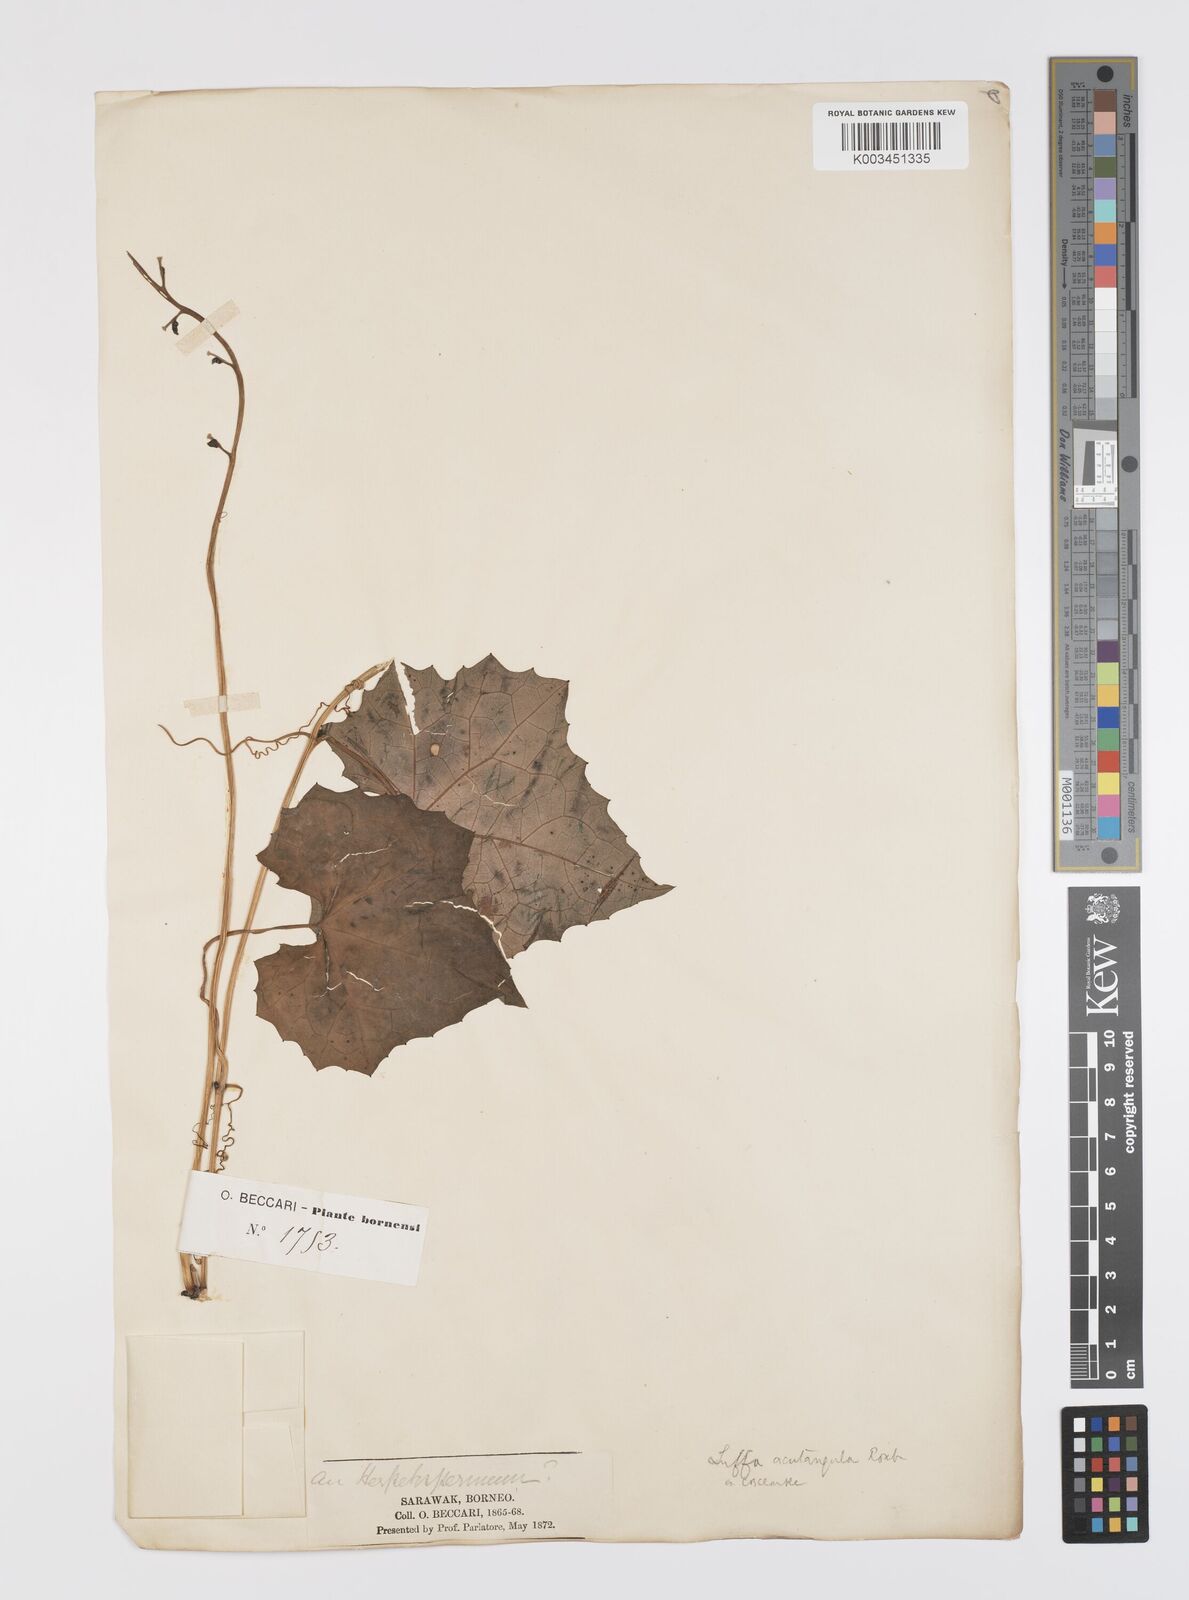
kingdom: Plantae
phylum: Tracheophyta
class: Magnoliopsida
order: Cucurbitales
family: Cucurbitaceae
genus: Luffa
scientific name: Luffa acutangula
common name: Sinkwa towelsponge
